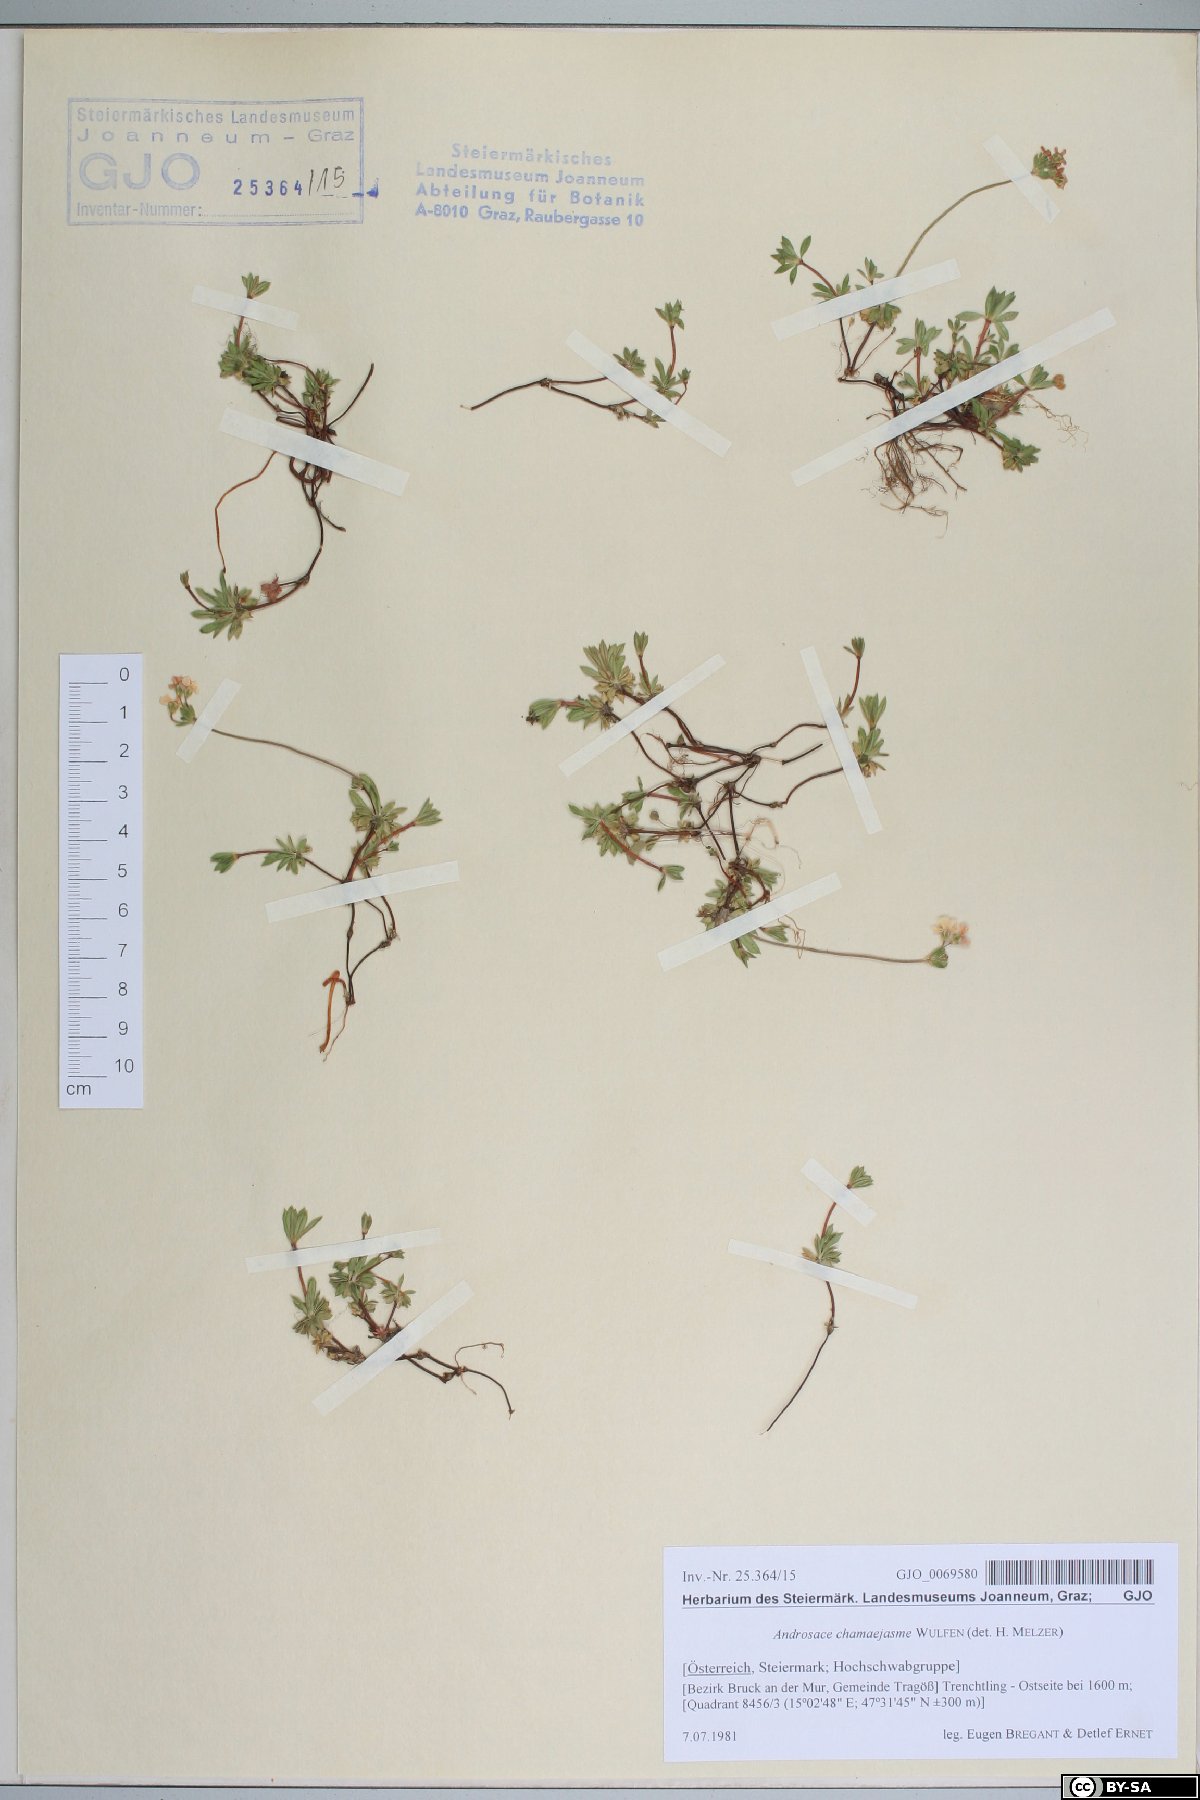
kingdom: Plantae
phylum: Tracheophyta
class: Magnoliopsida
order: Ericales
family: Primulaceae
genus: Androsace
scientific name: Androsace chamaejasme
